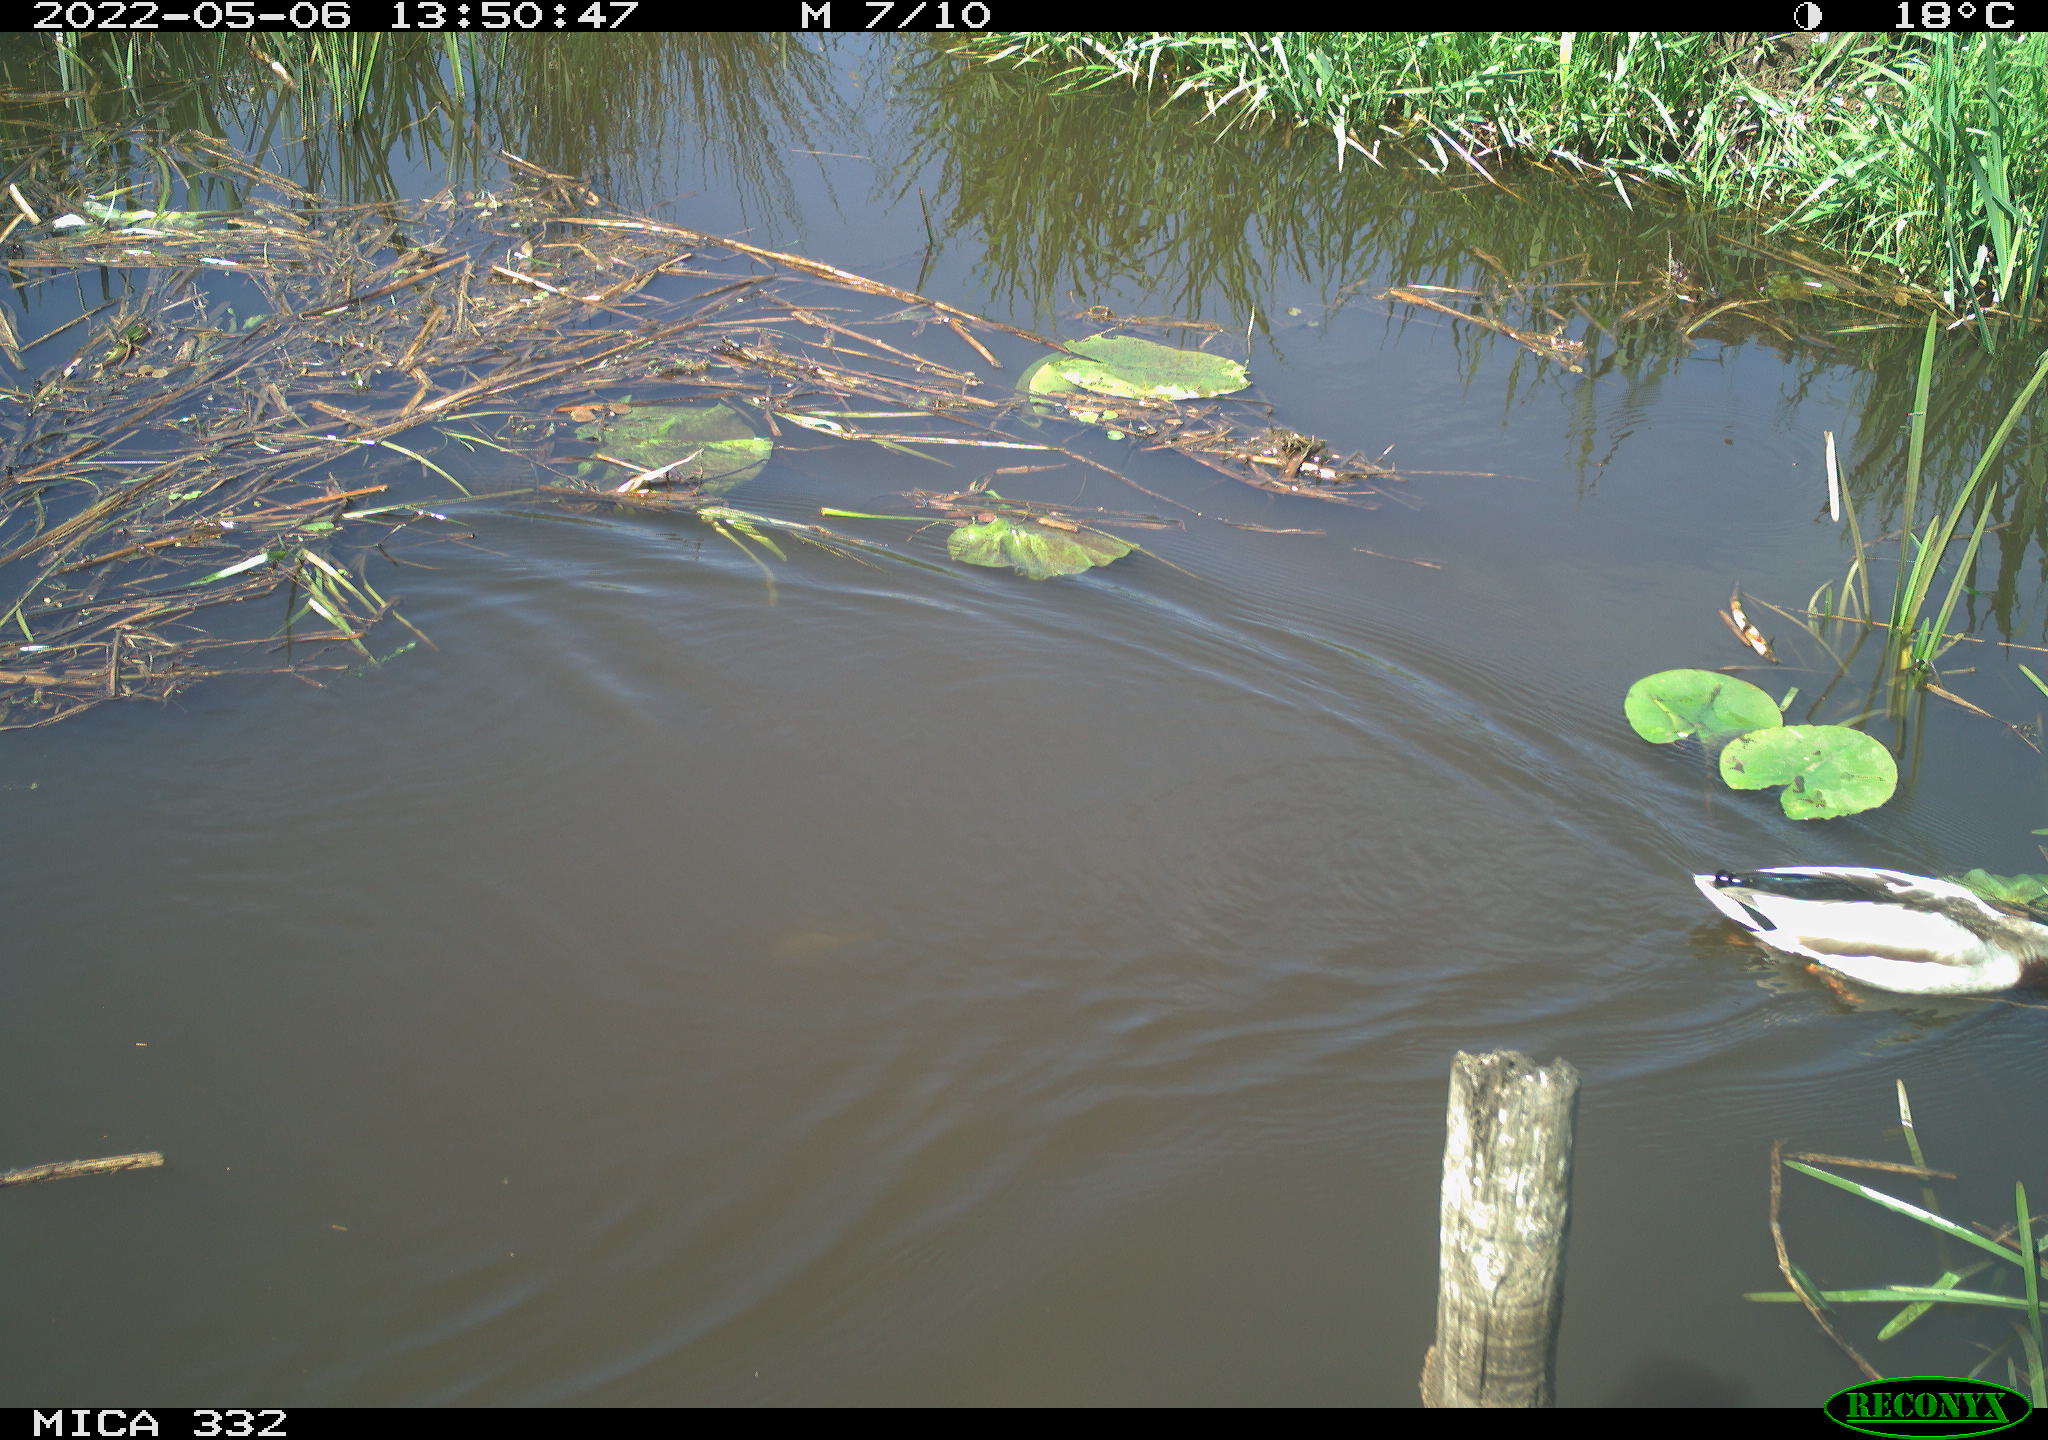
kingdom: Animalia
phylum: Chordata
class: Aves
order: Anseriformes
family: Anatidae
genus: Anas
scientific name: Anas platyrhynchos
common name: Mallard
